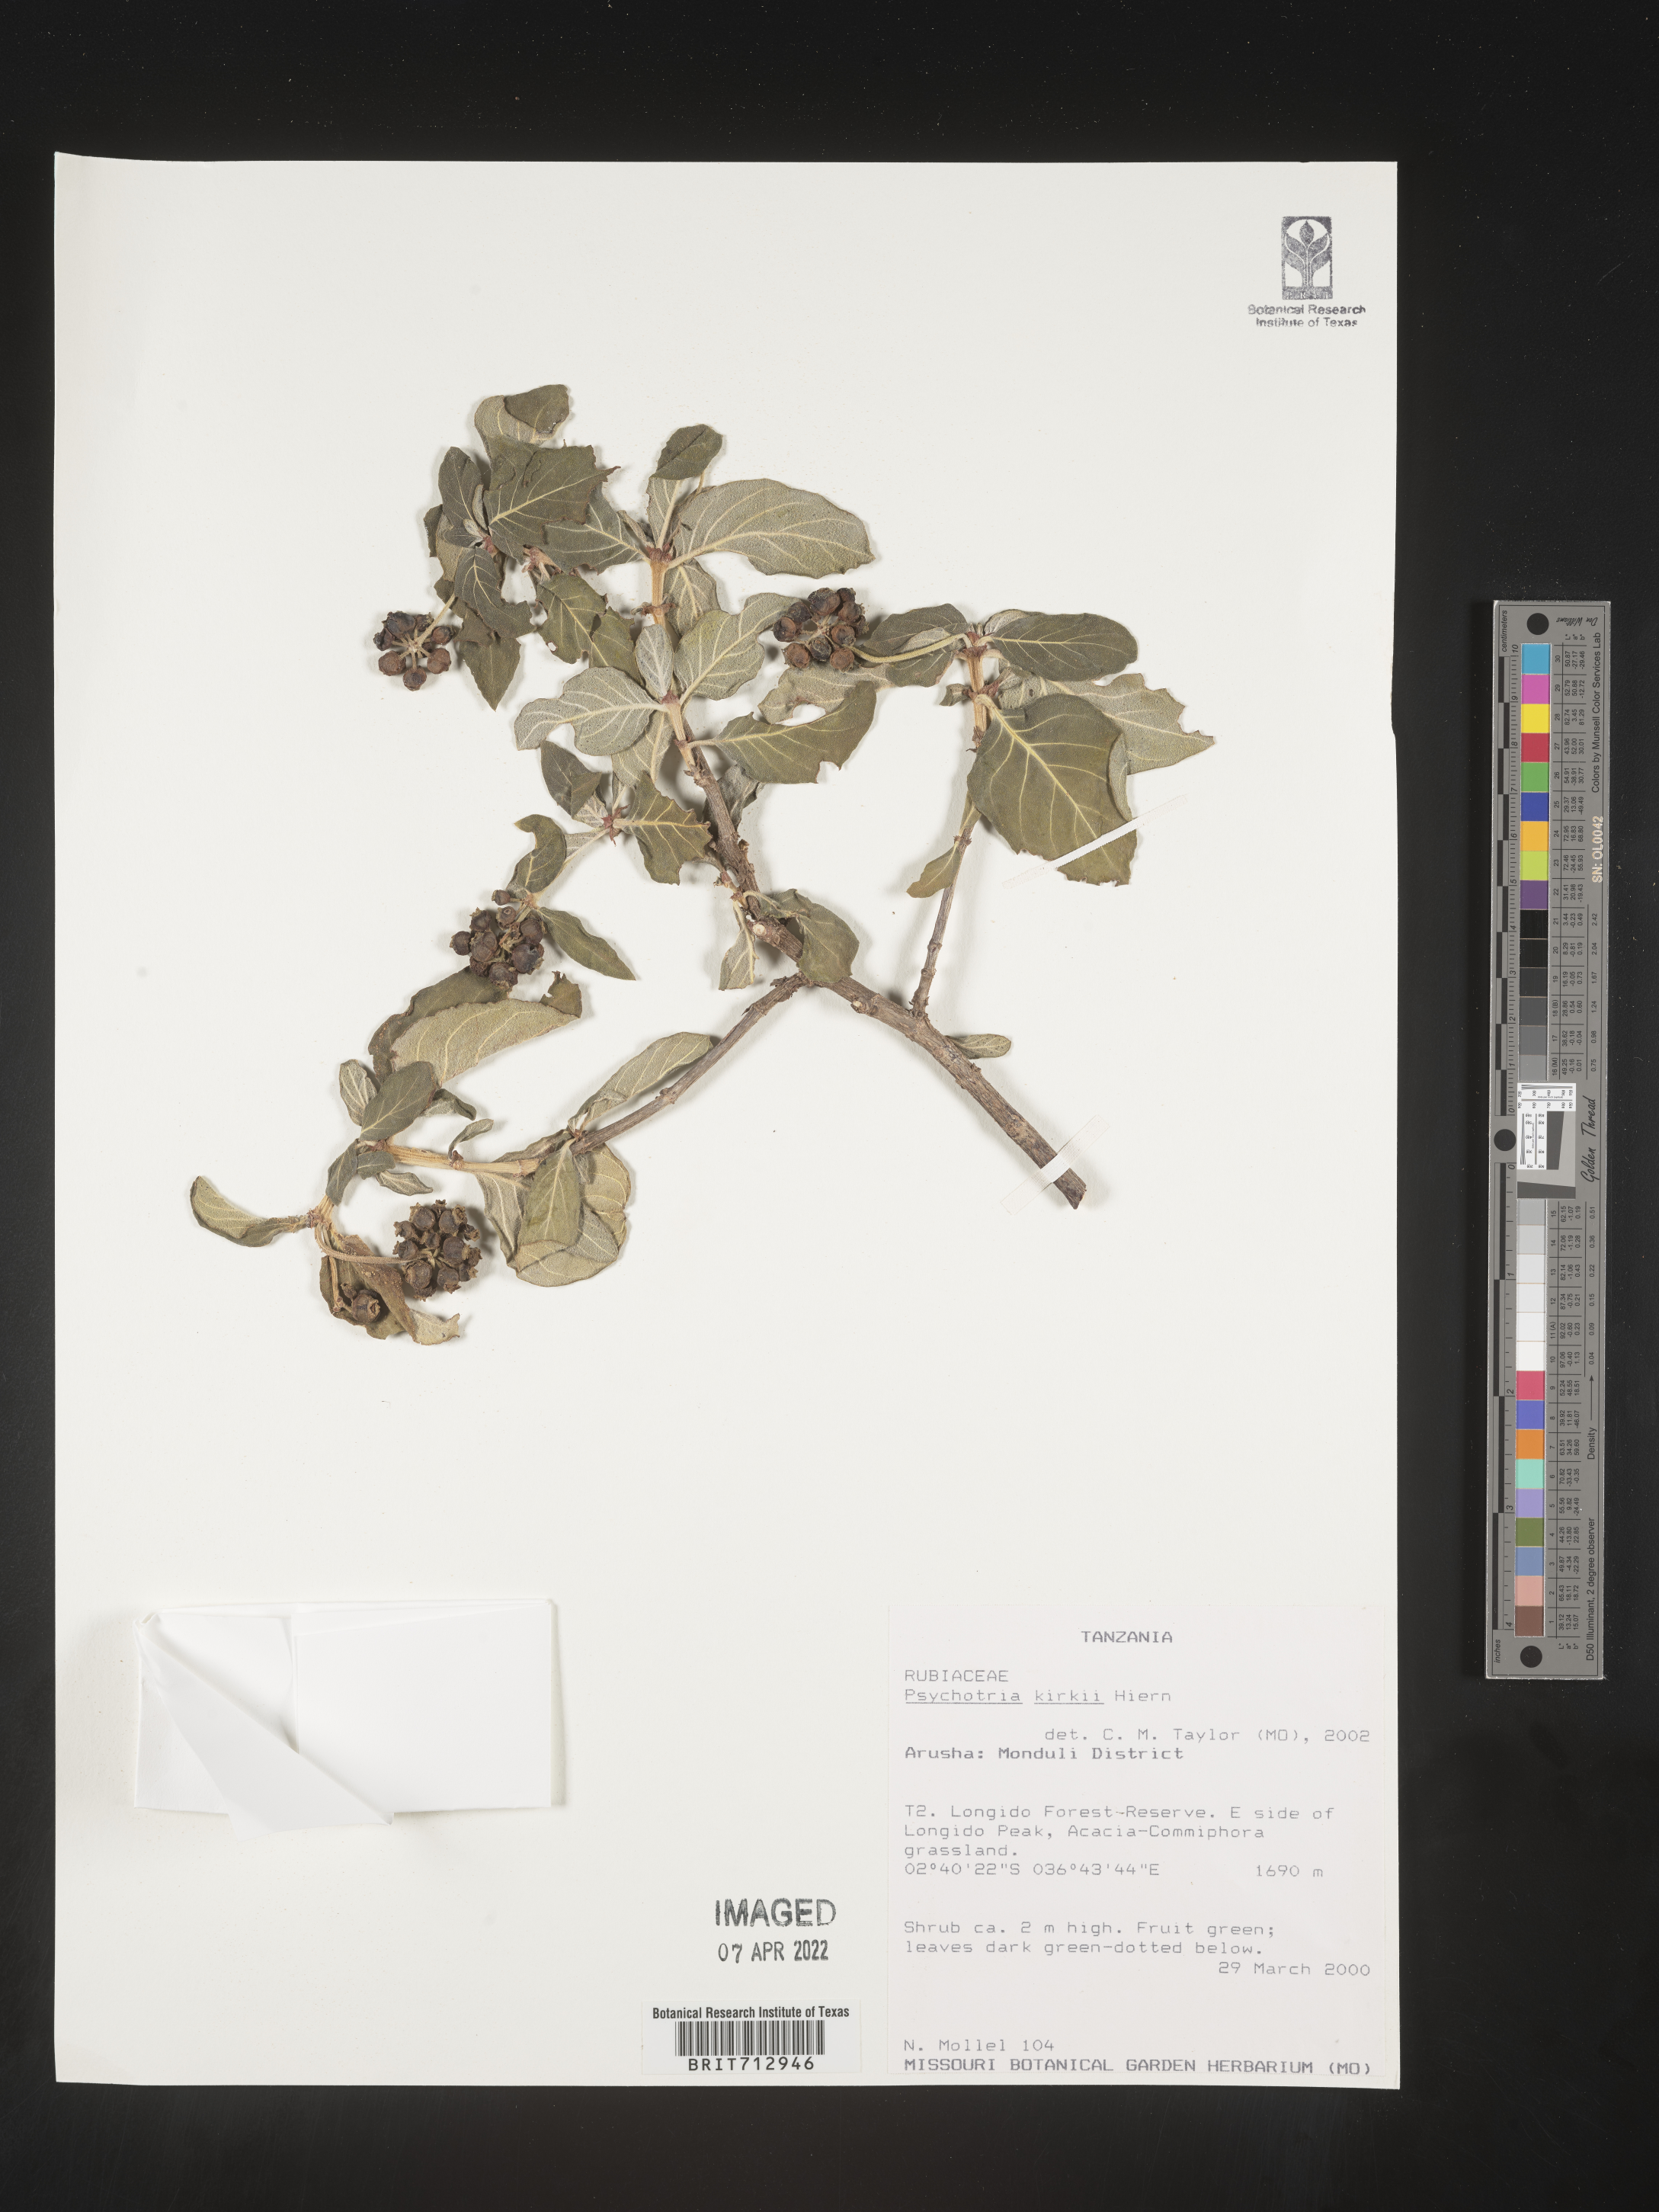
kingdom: Plantae
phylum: Tracheophyta
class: Magnoliopsida
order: Gentianales
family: Rubiaceae
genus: Psychotria
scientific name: Psychotria punctata
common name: Dotted wild coffee
